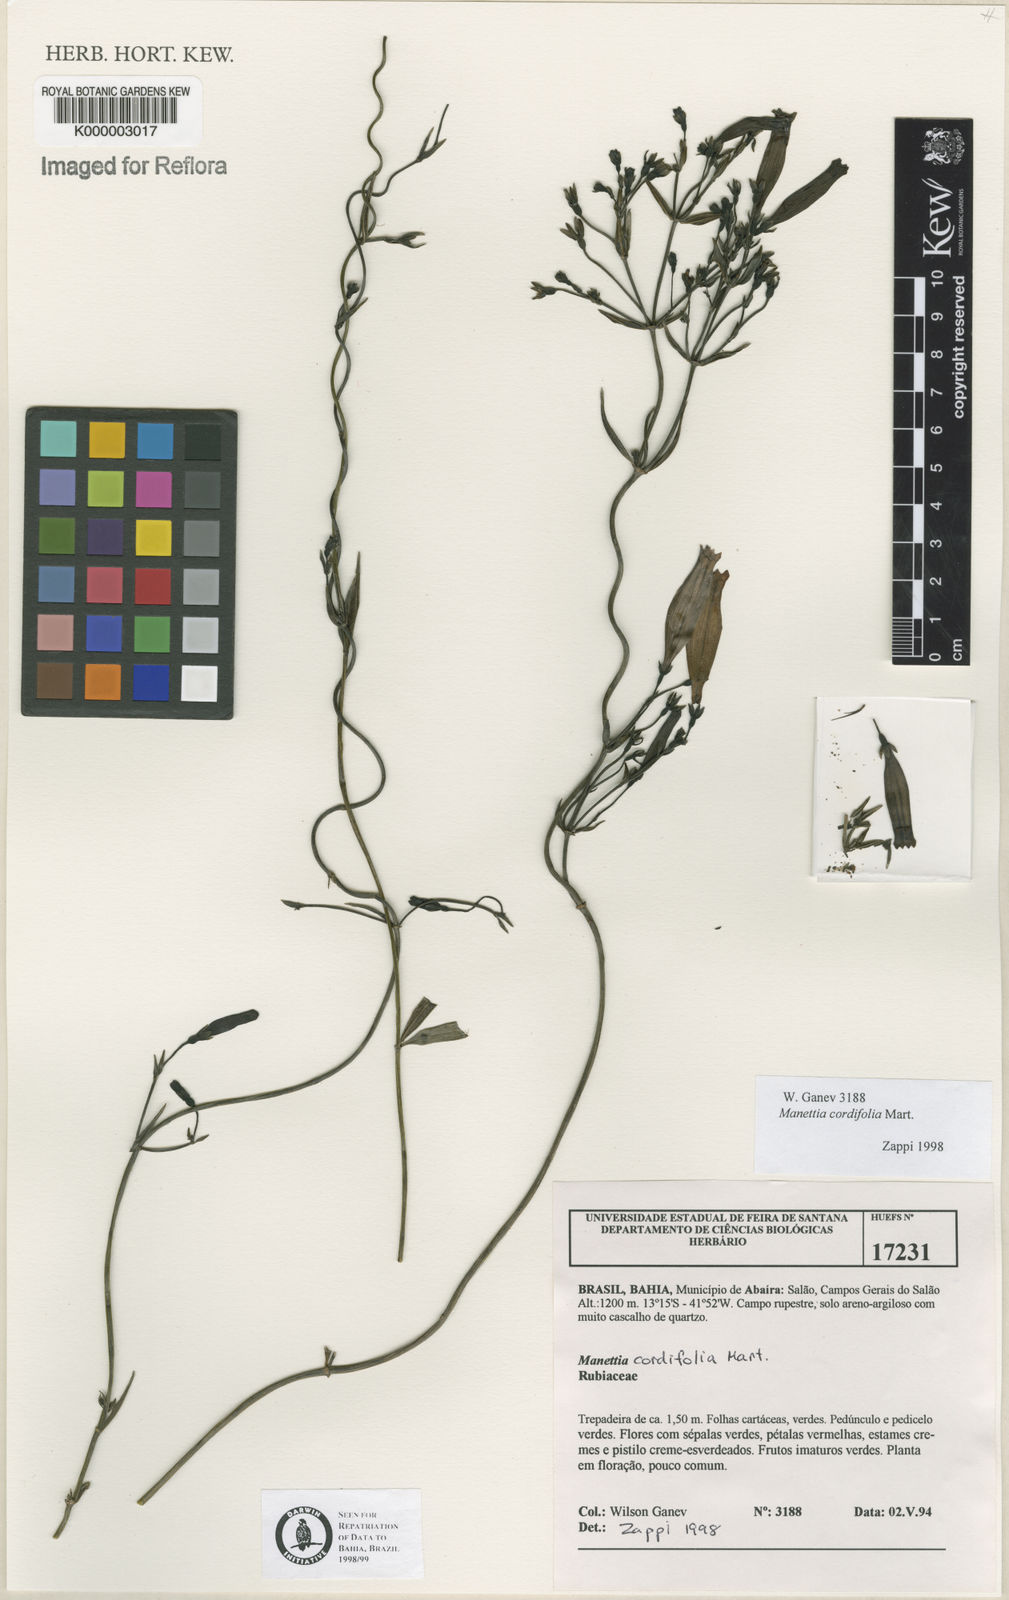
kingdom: Plantae
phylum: Tracheophyta
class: Magnoliopsida
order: Gentianales
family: Rubiaceae
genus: Manettia
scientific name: Manettia cordifolia
